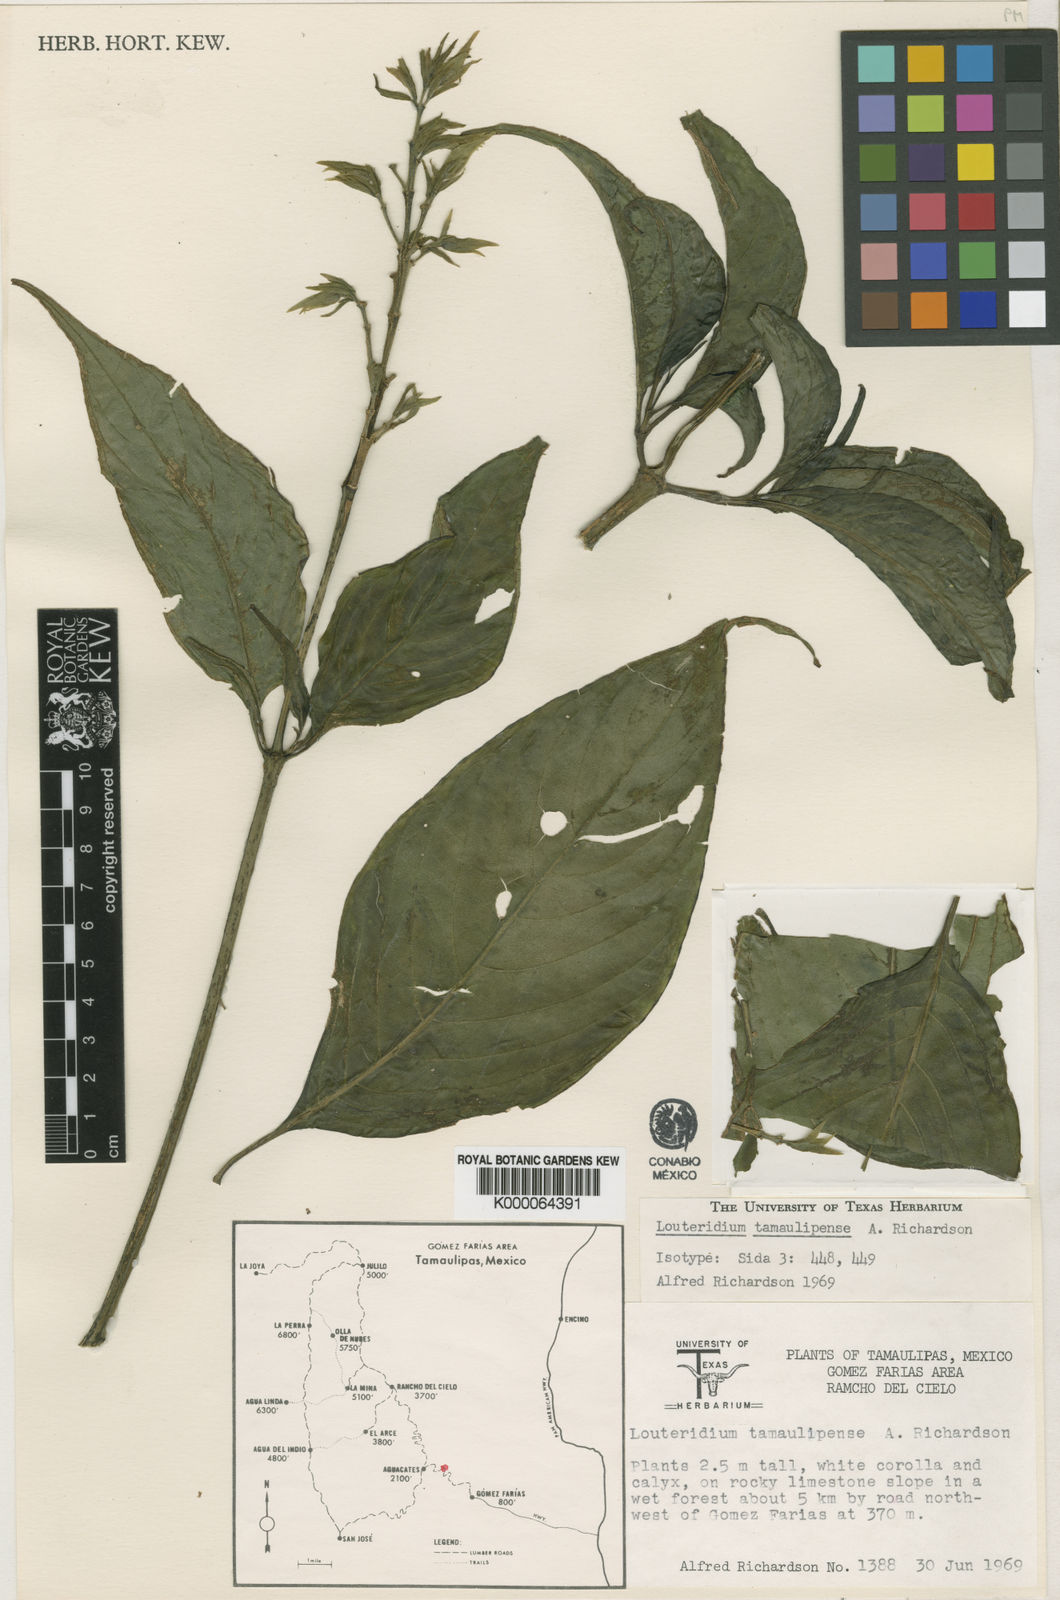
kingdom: Plantae
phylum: Tracheophyta
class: Magnoliopsida
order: Lamiales
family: Acanthaceae
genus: Louteridium
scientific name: Louteridium tamaulipense
